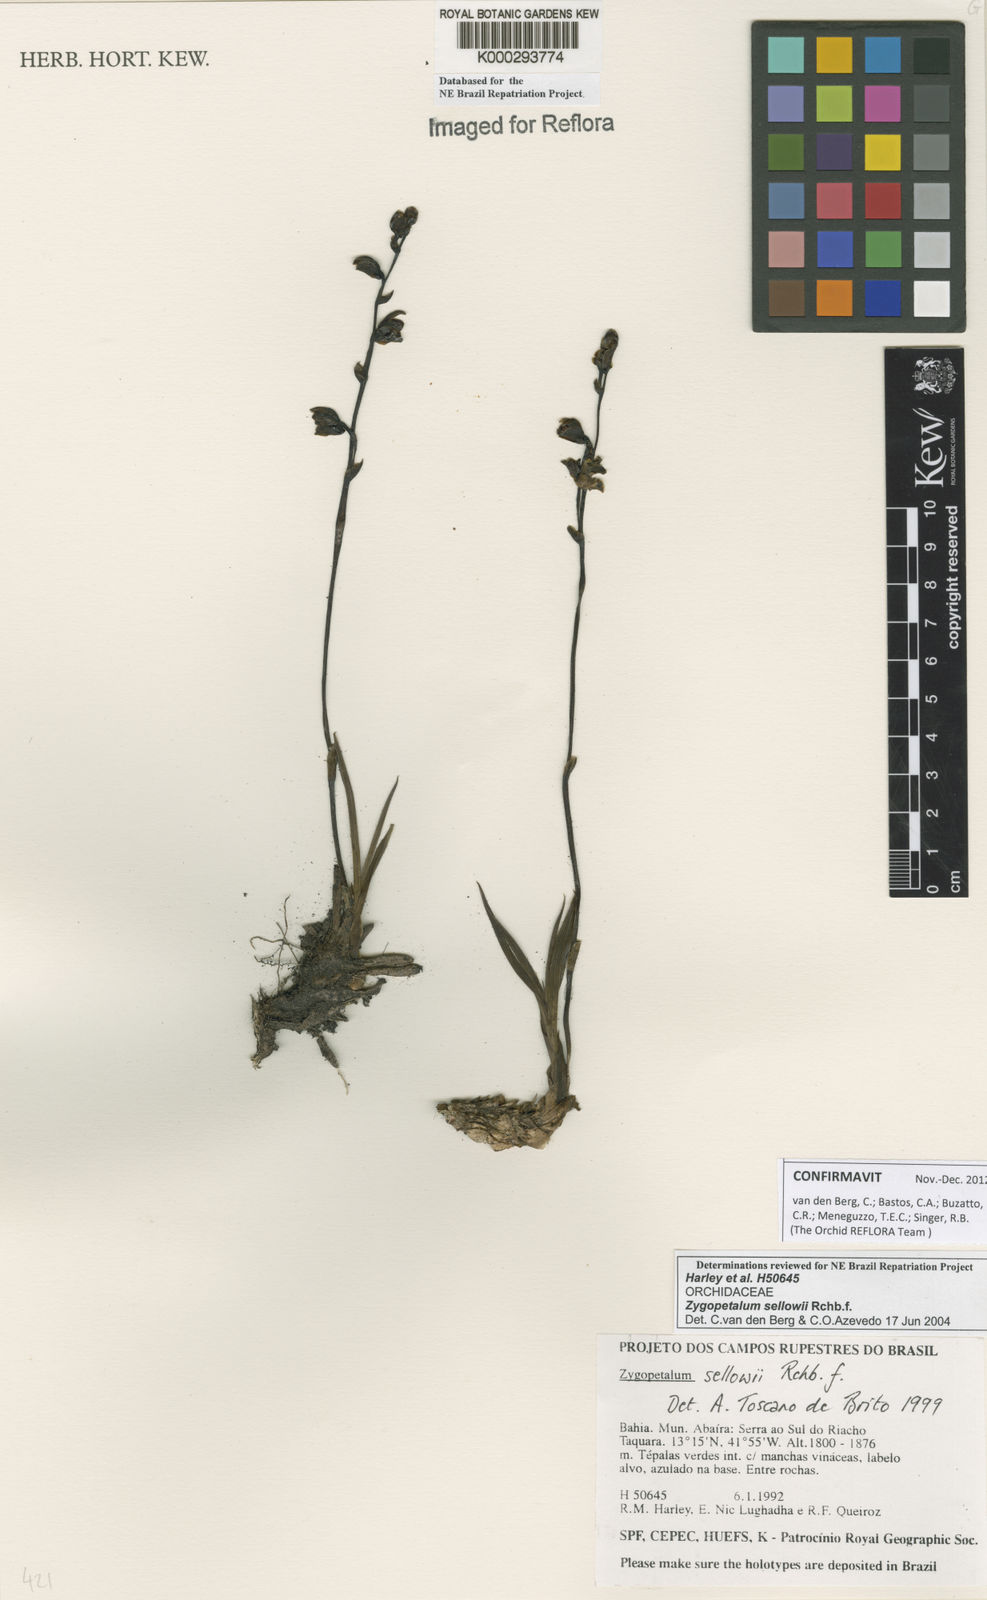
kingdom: Plantae
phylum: Tracheophyta
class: Liliopsida
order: Asparagales
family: Orchidaceae
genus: Zygopetalum
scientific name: Zygopetalum sellowii
